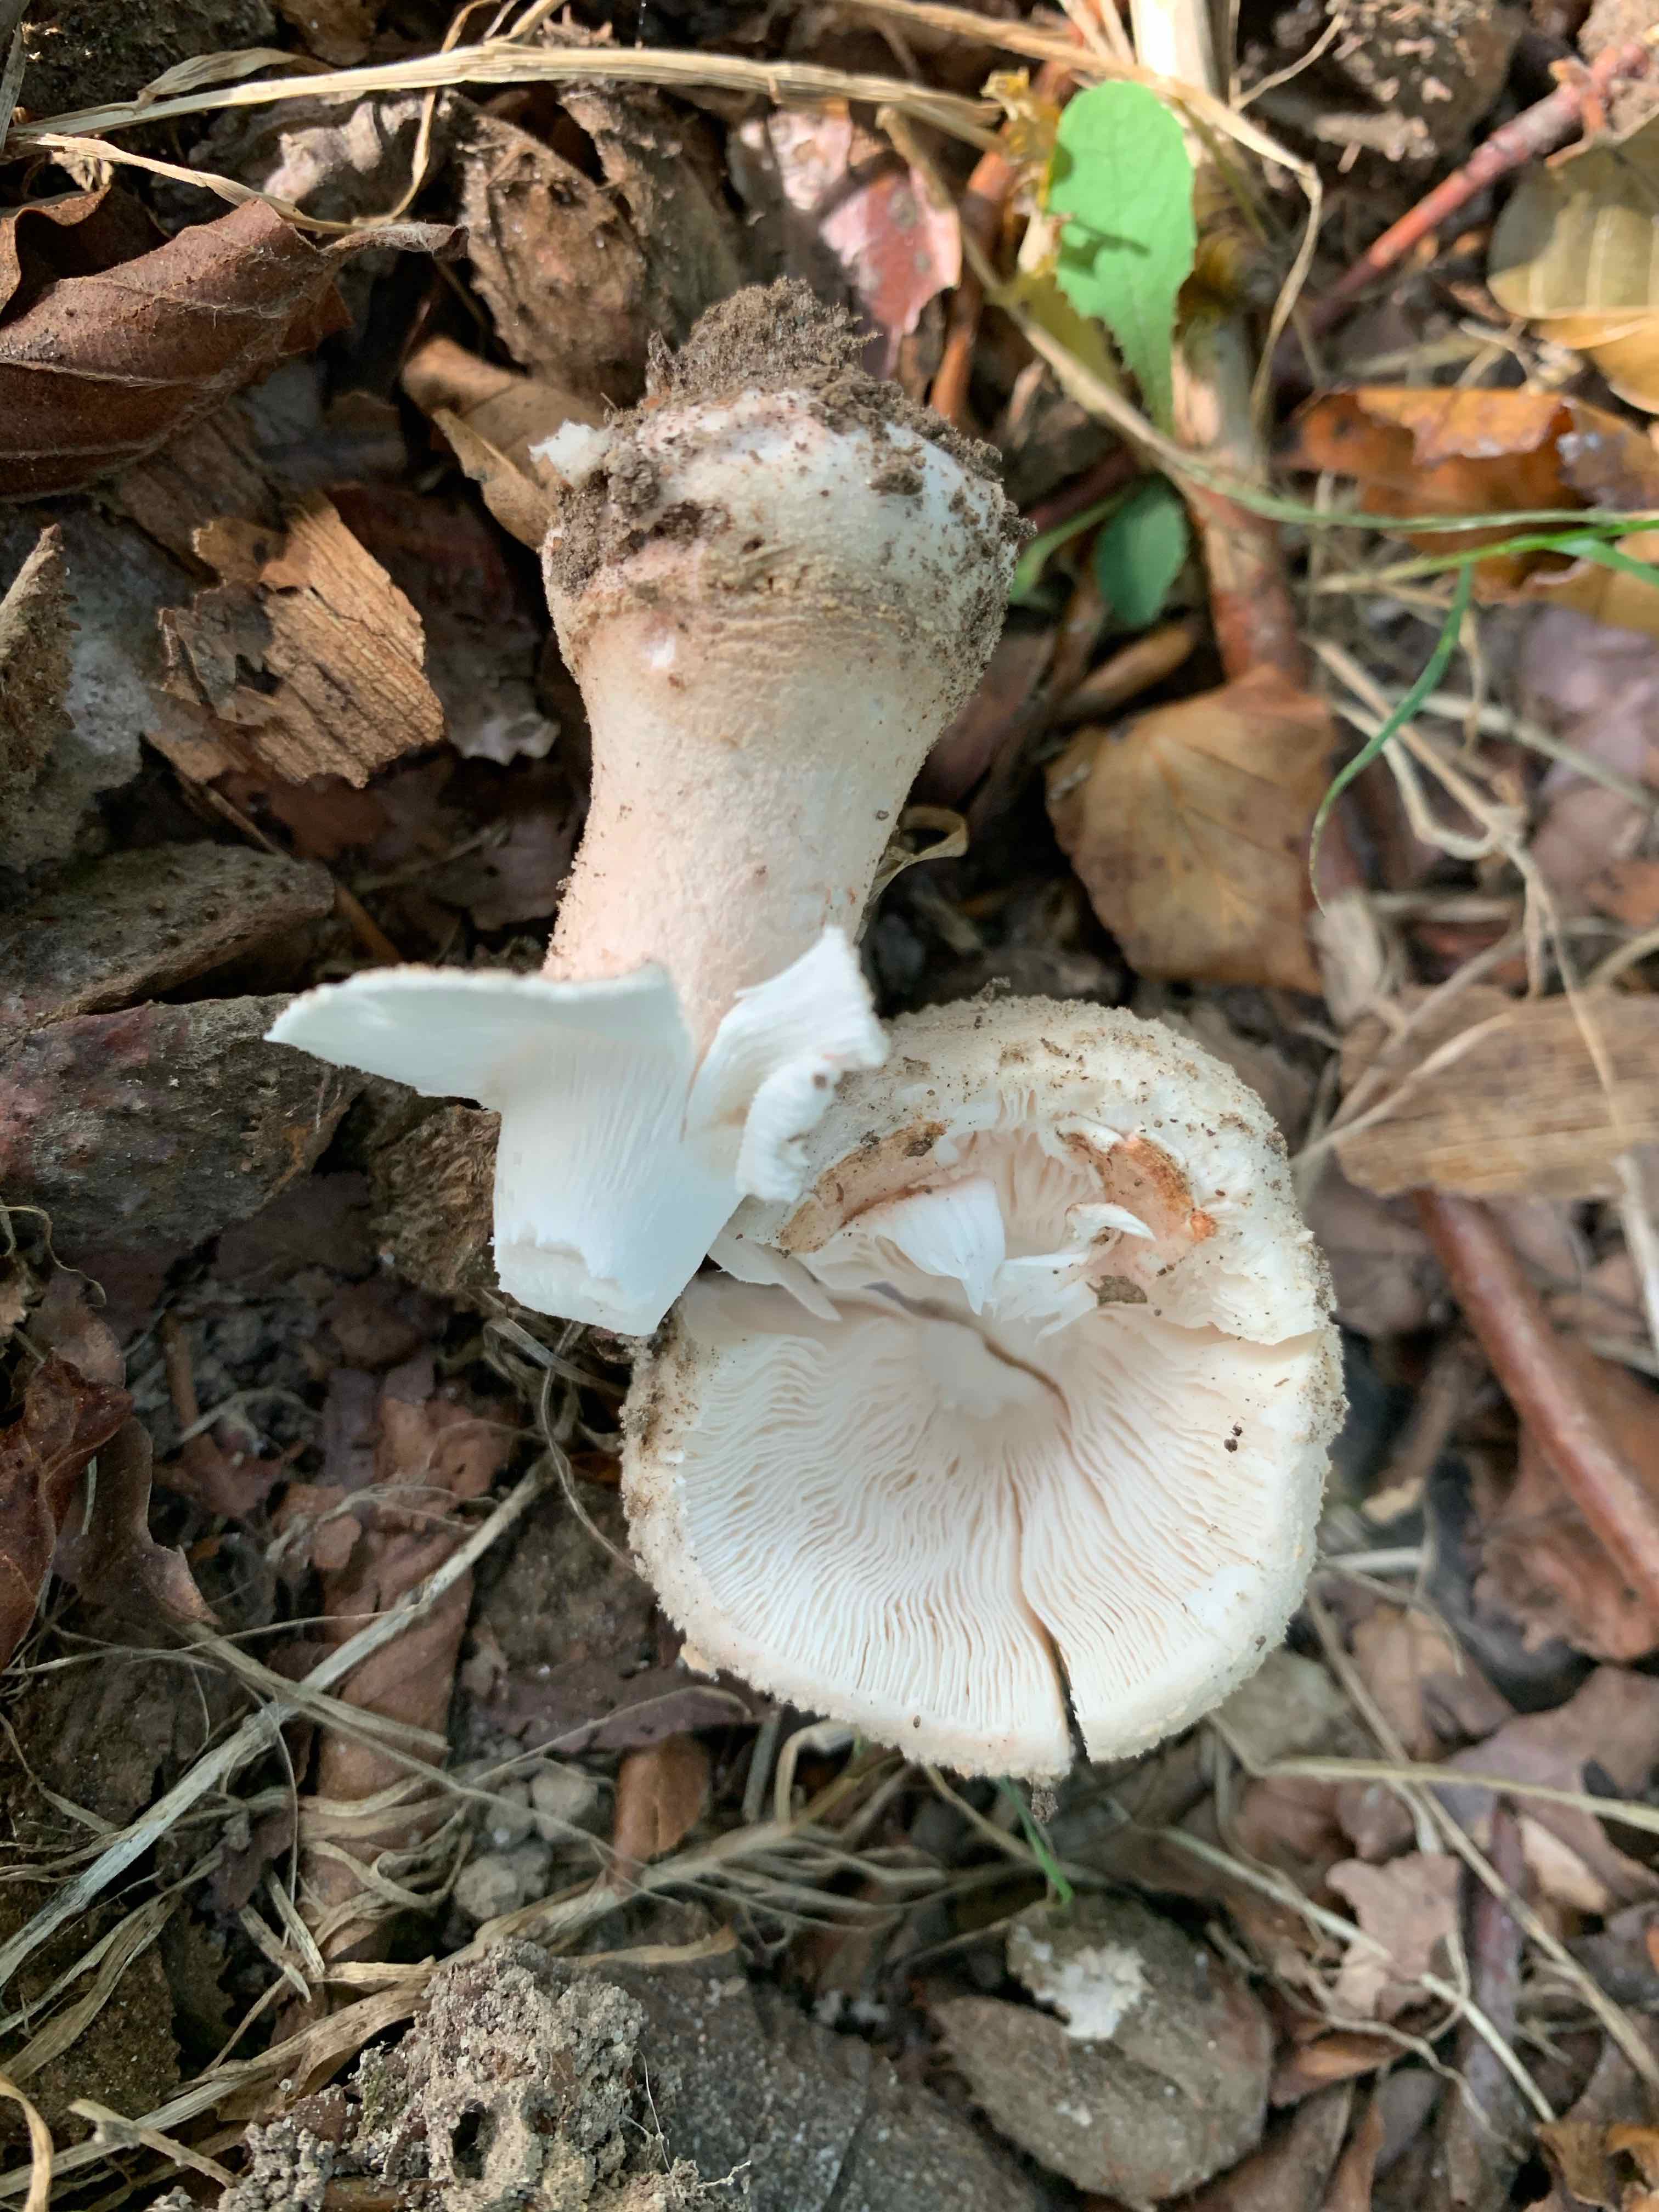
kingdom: Fungi
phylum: Basidiomycota
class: Agaricomycetes
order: Agaricales
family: Amanitaceae
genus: Amanita
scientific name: Amanita rubescens
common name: rødmende fluesvamp
